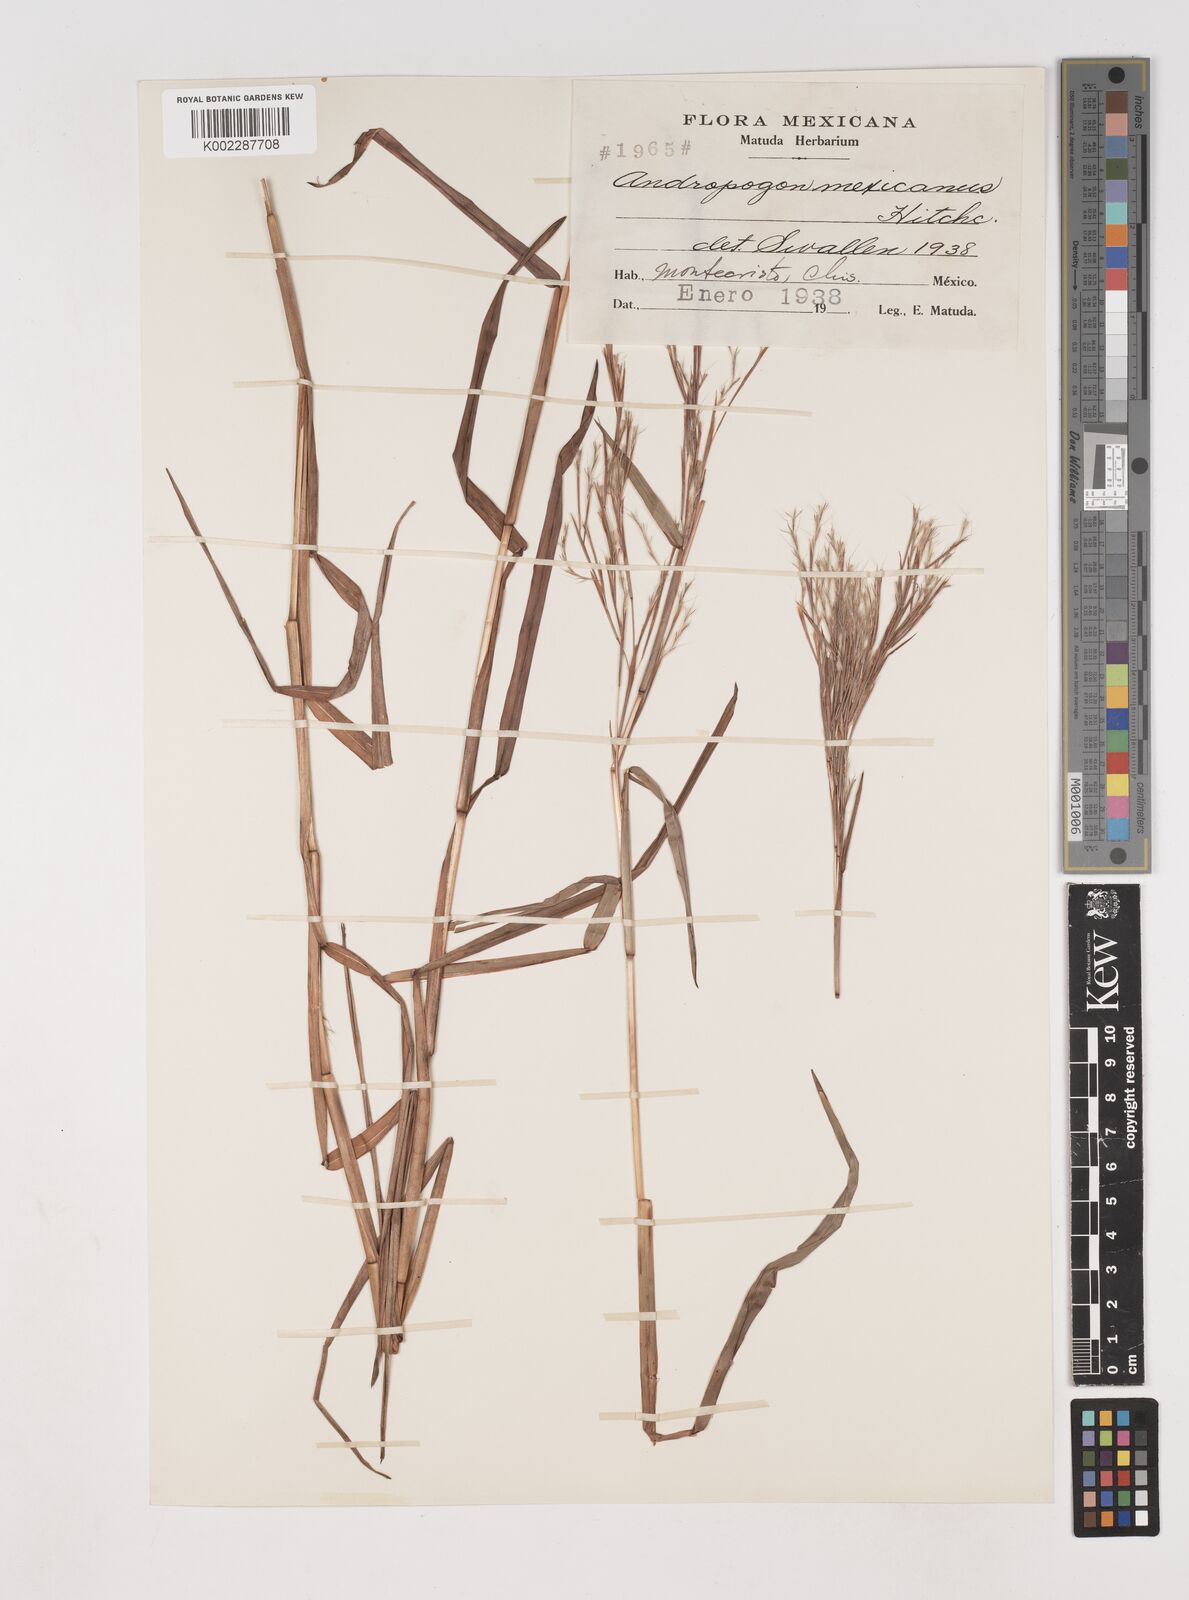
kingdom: Plantae
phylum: Tracheophyta
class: Liliopsida
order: Poales
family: Poaceae
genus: Schizachyrium
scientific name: Schizachyrium mexicanum
